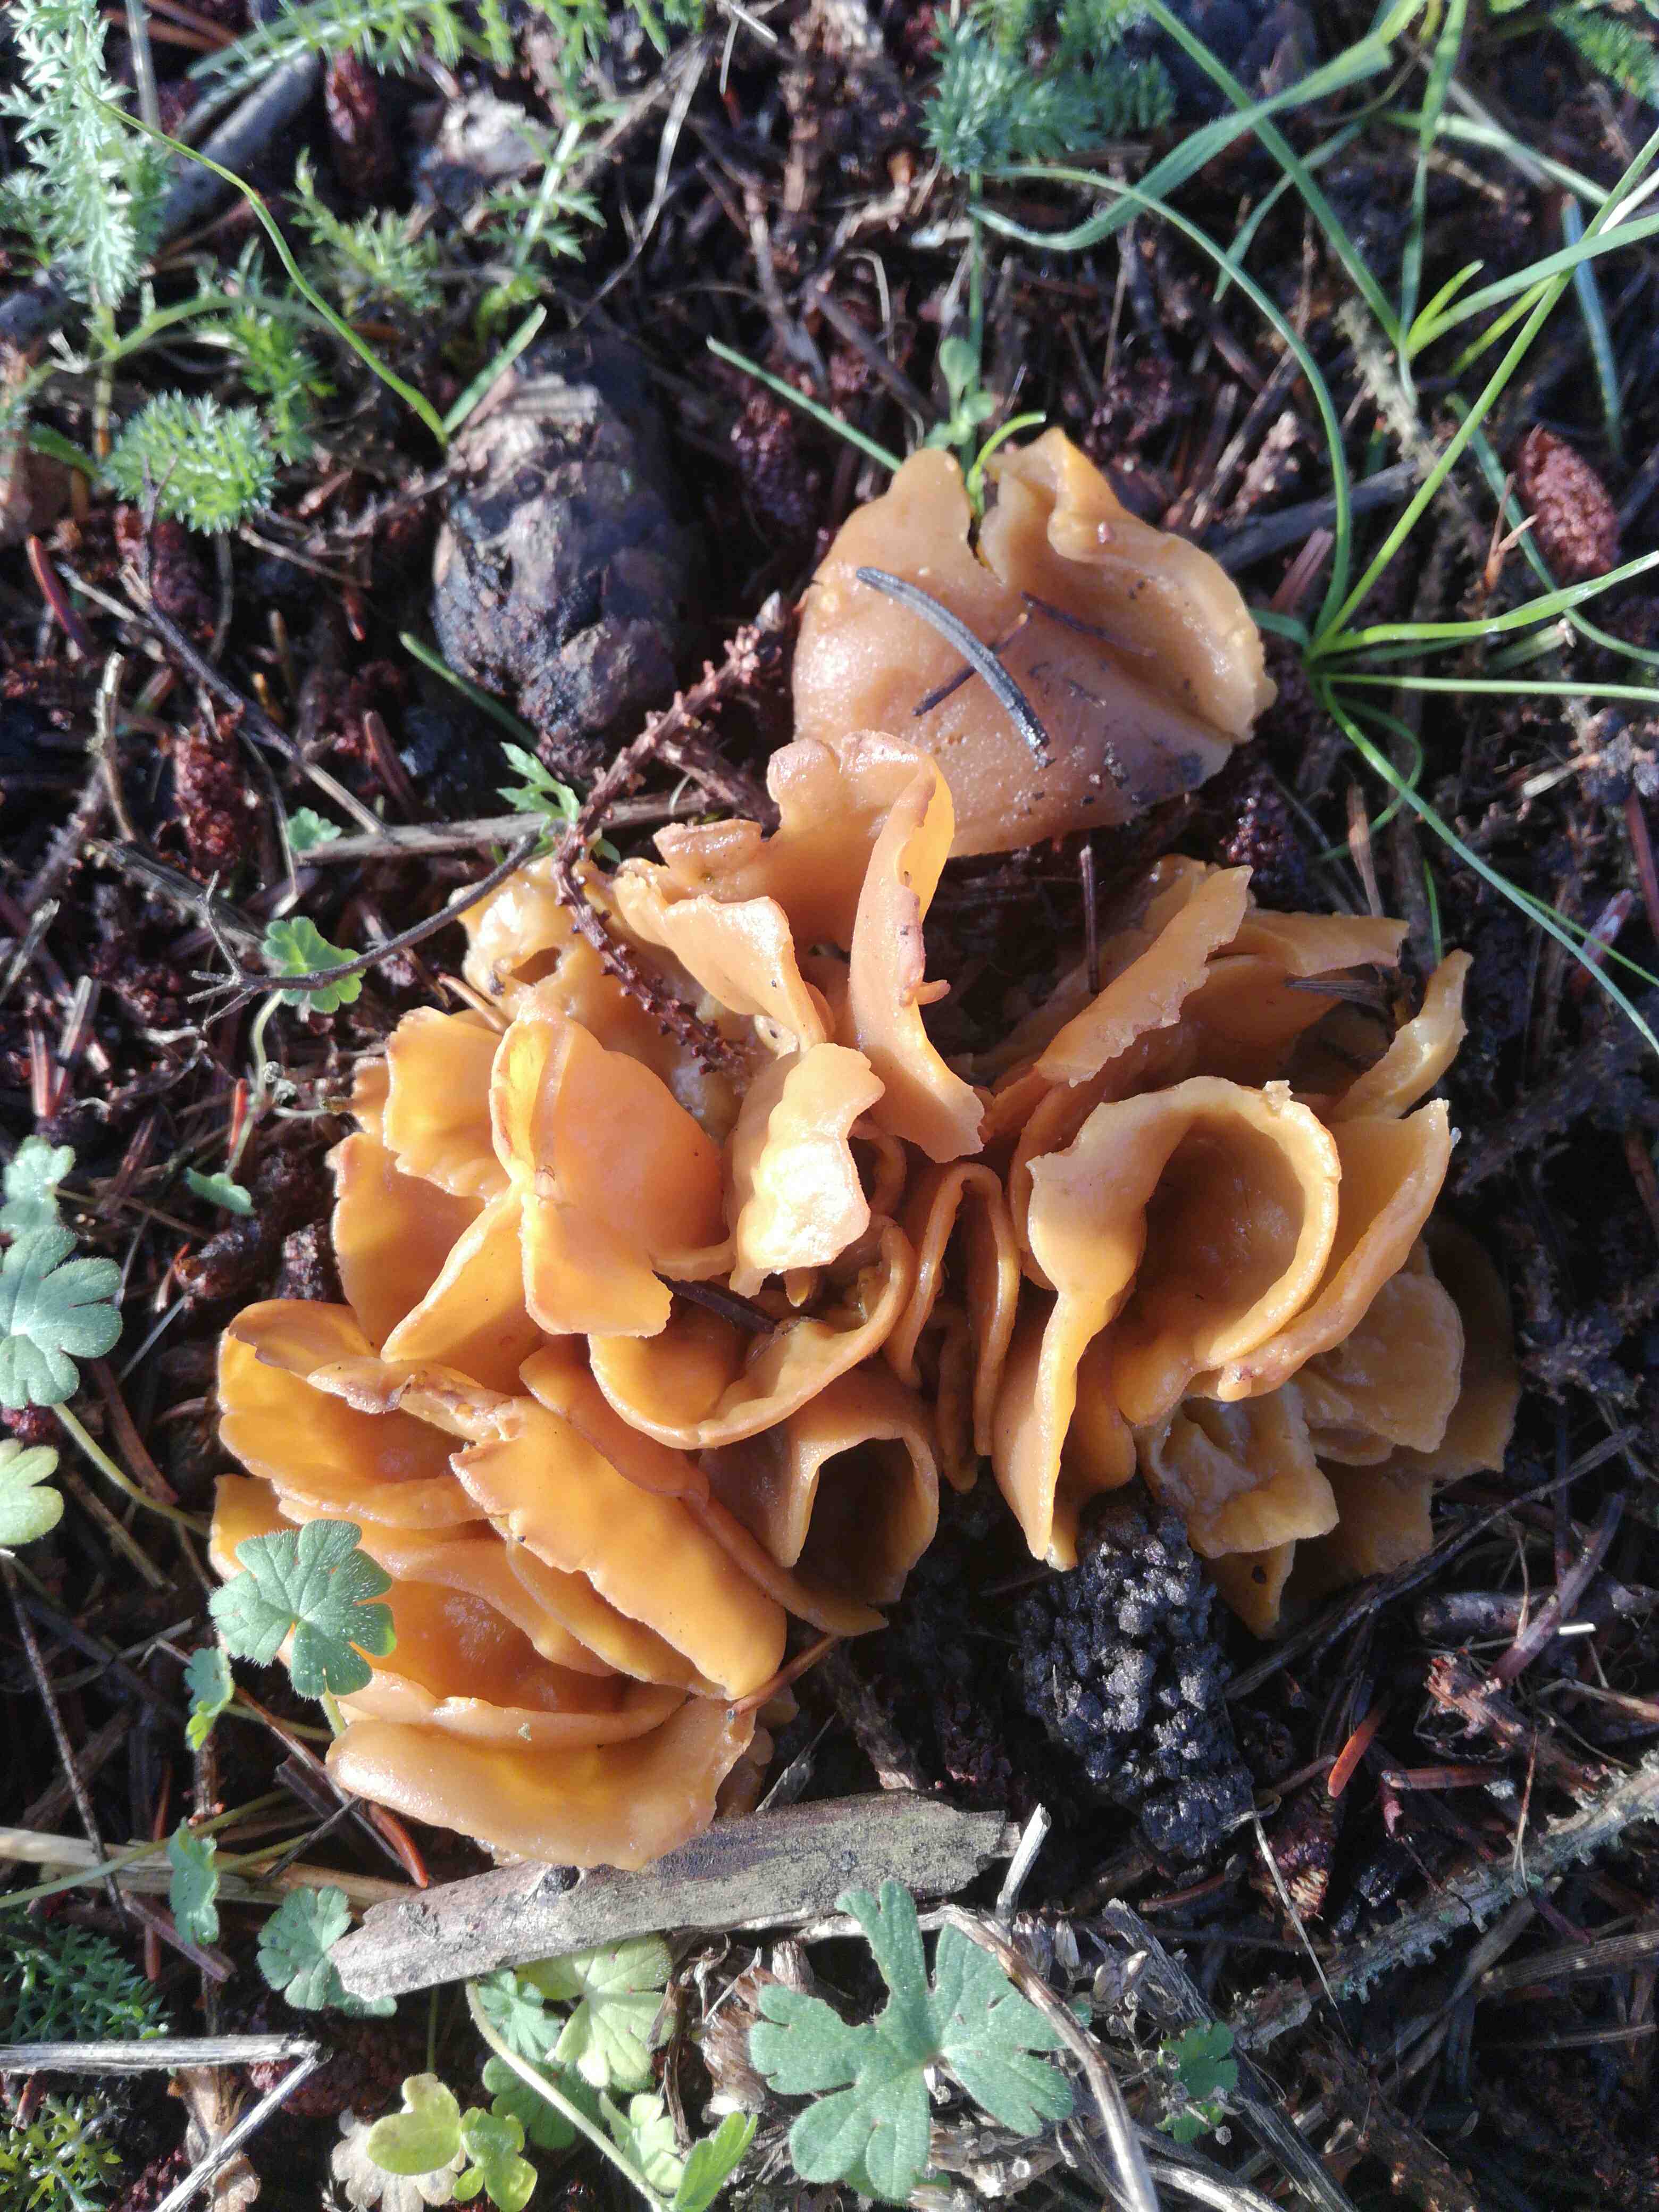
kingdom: Fungi
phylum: Ascomycota
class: Pezizomycetes
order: Pezizales
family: Pyronemataceae
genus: Sowerbyella
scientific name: Sowerbyella radiculata
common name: grøngul rodbæger
